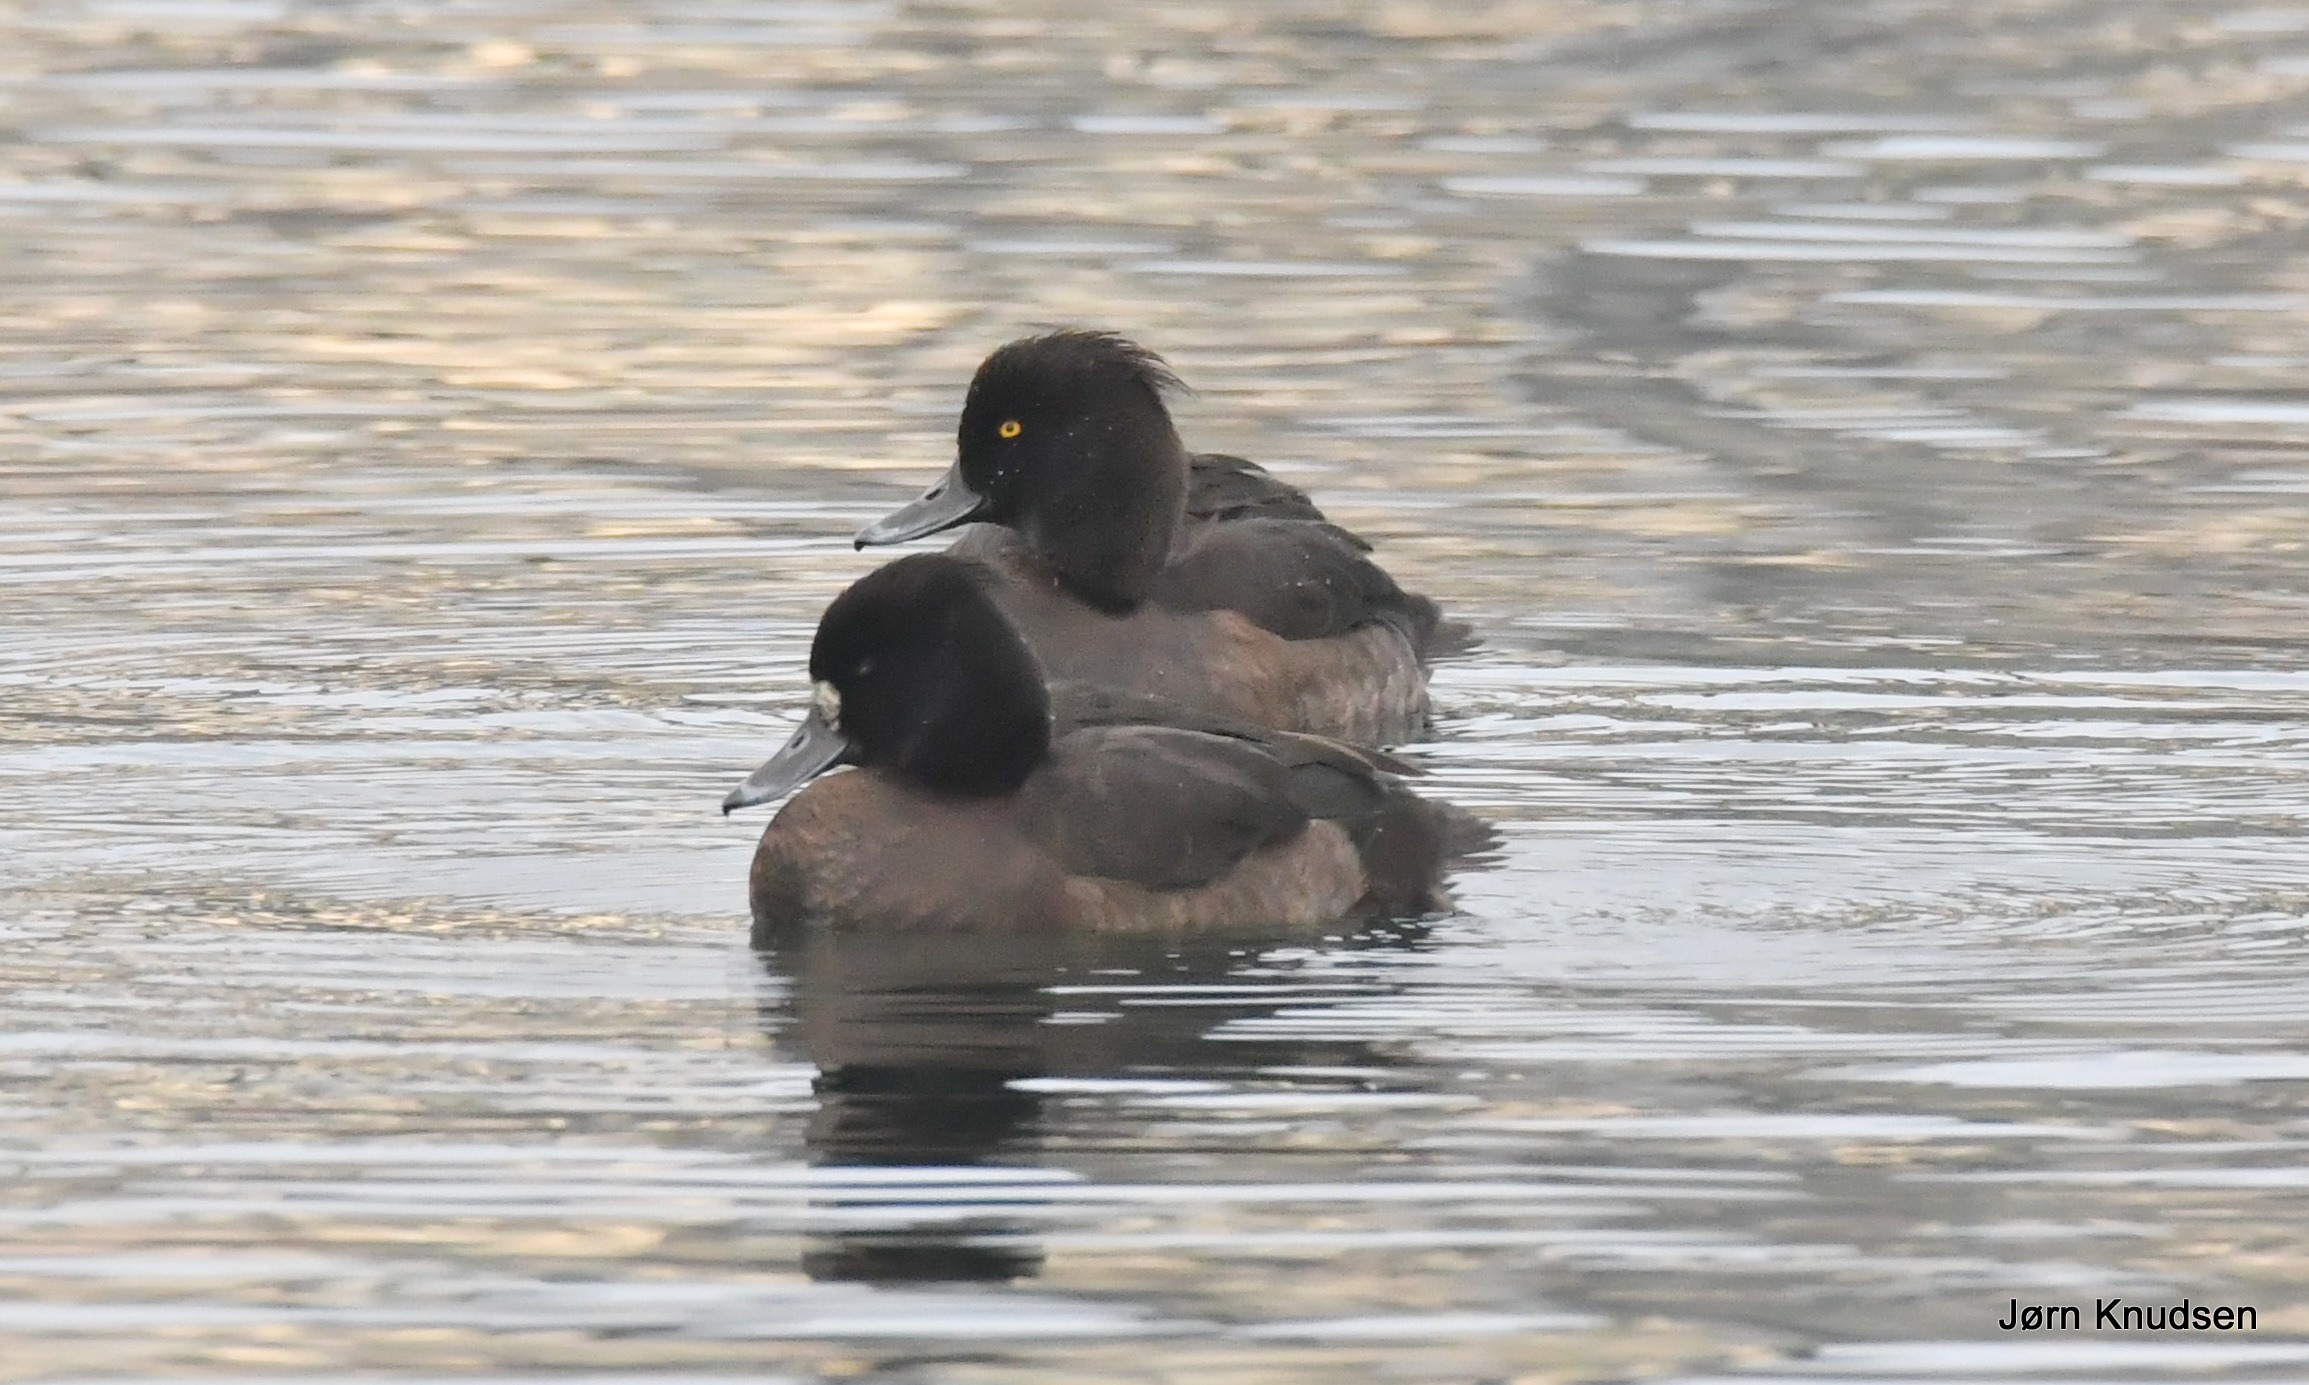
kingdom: Animalia
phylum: Chordata
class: Aves
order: Anseriformes
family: Anatidae
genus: Aythya
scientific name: Aythya fuligula
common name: Troldand
